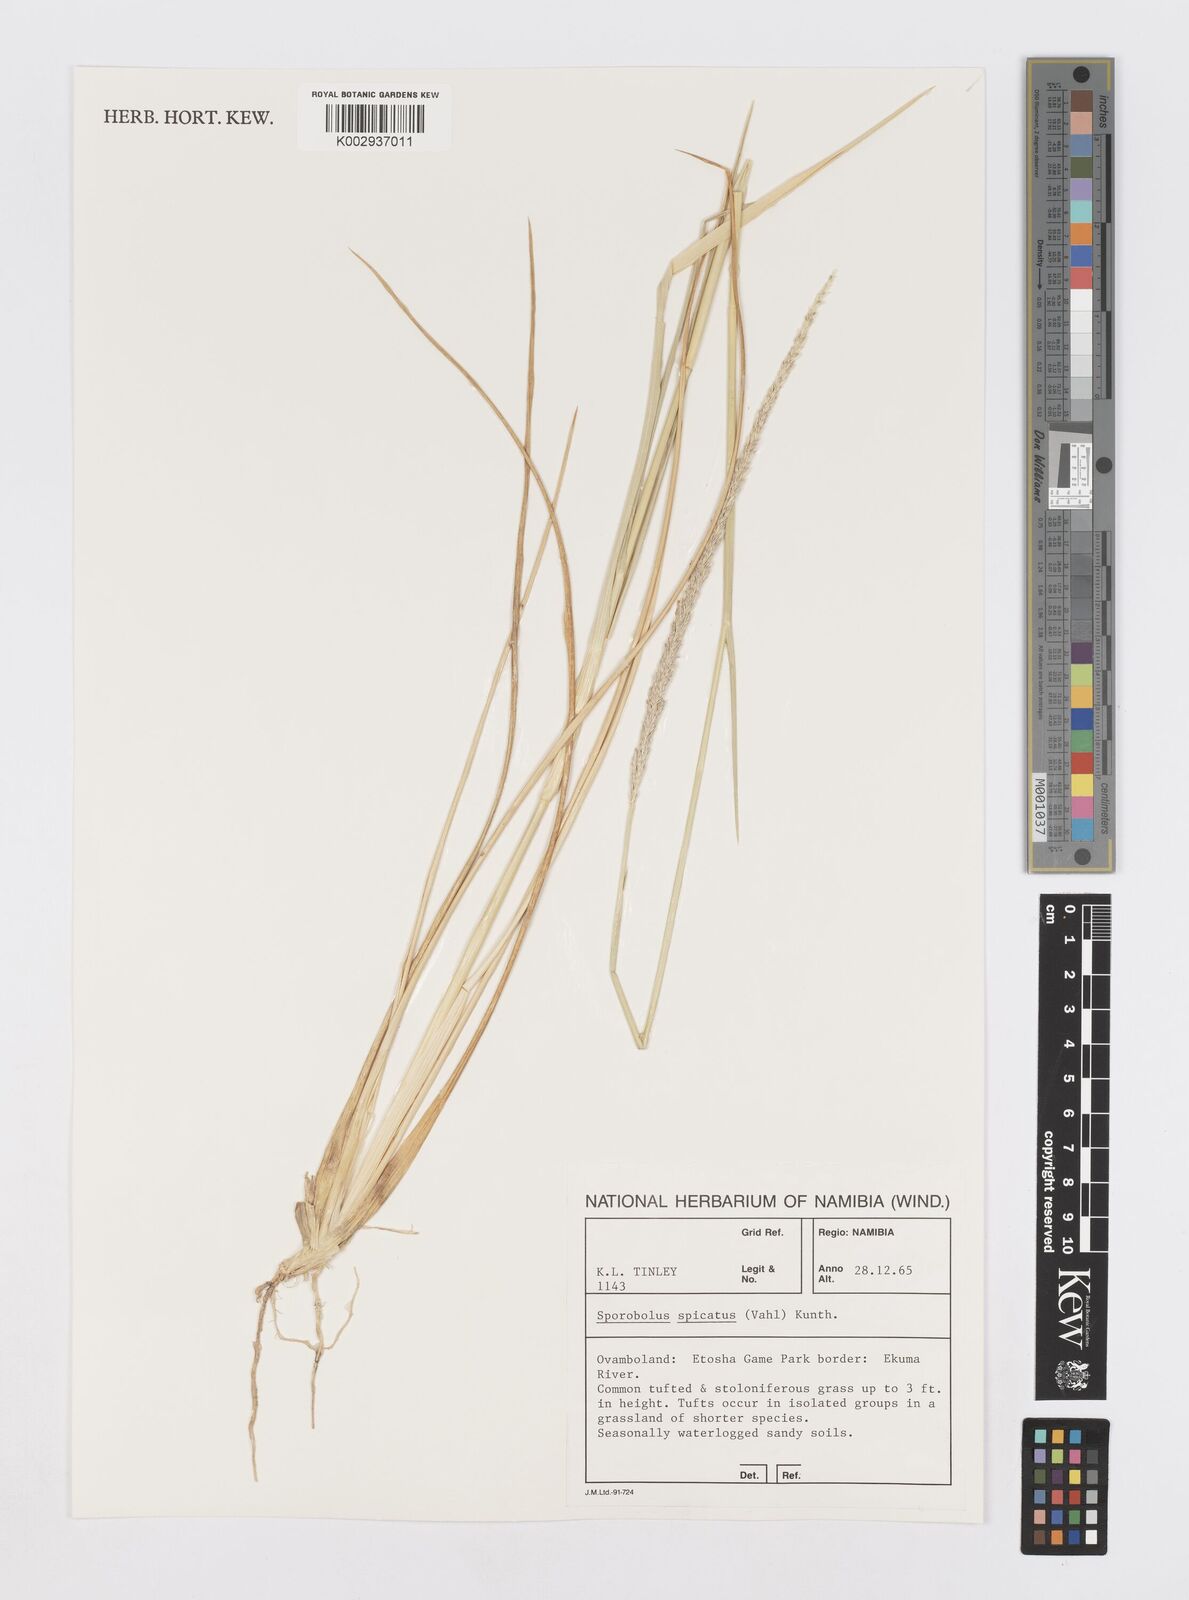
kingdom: Plantae
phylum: Tracheophyta
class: Liliopsida
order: Poales
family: Poaceae
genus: Sporobolus
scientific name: Sporobolus spicatus
